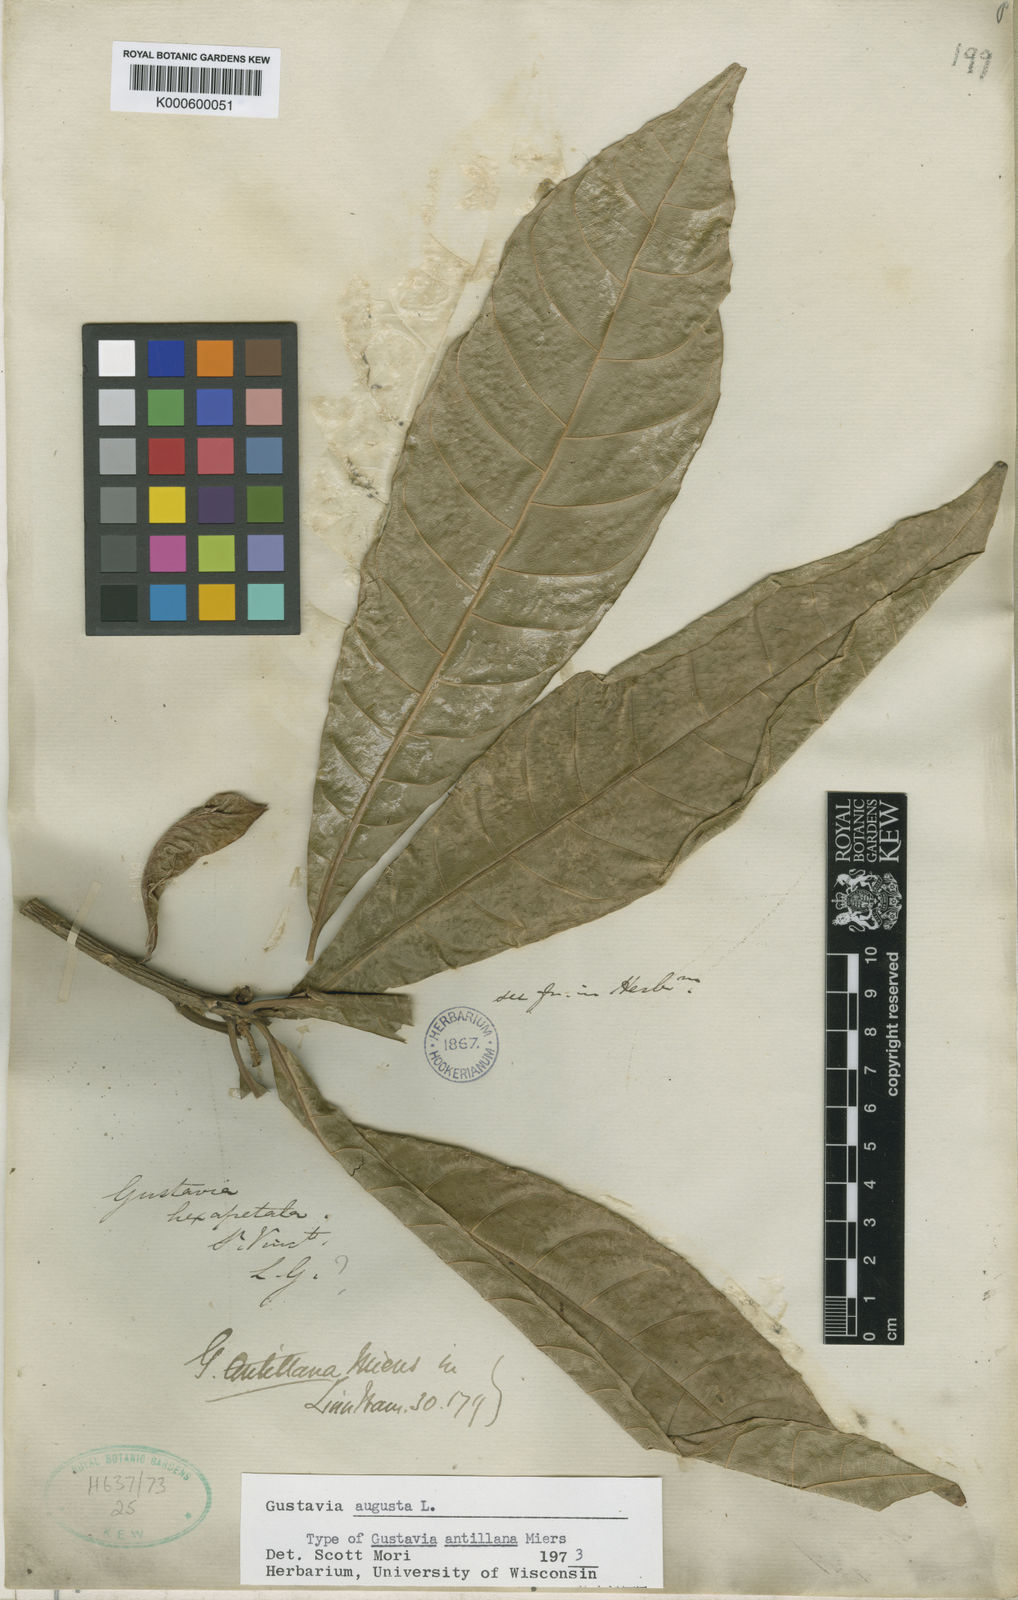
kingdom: Plantae
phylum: Tracheophyta
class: Magnoliopsida
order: Ericales
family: Lecythidaceae
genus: Gustavia
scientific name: Gustavia augusta
